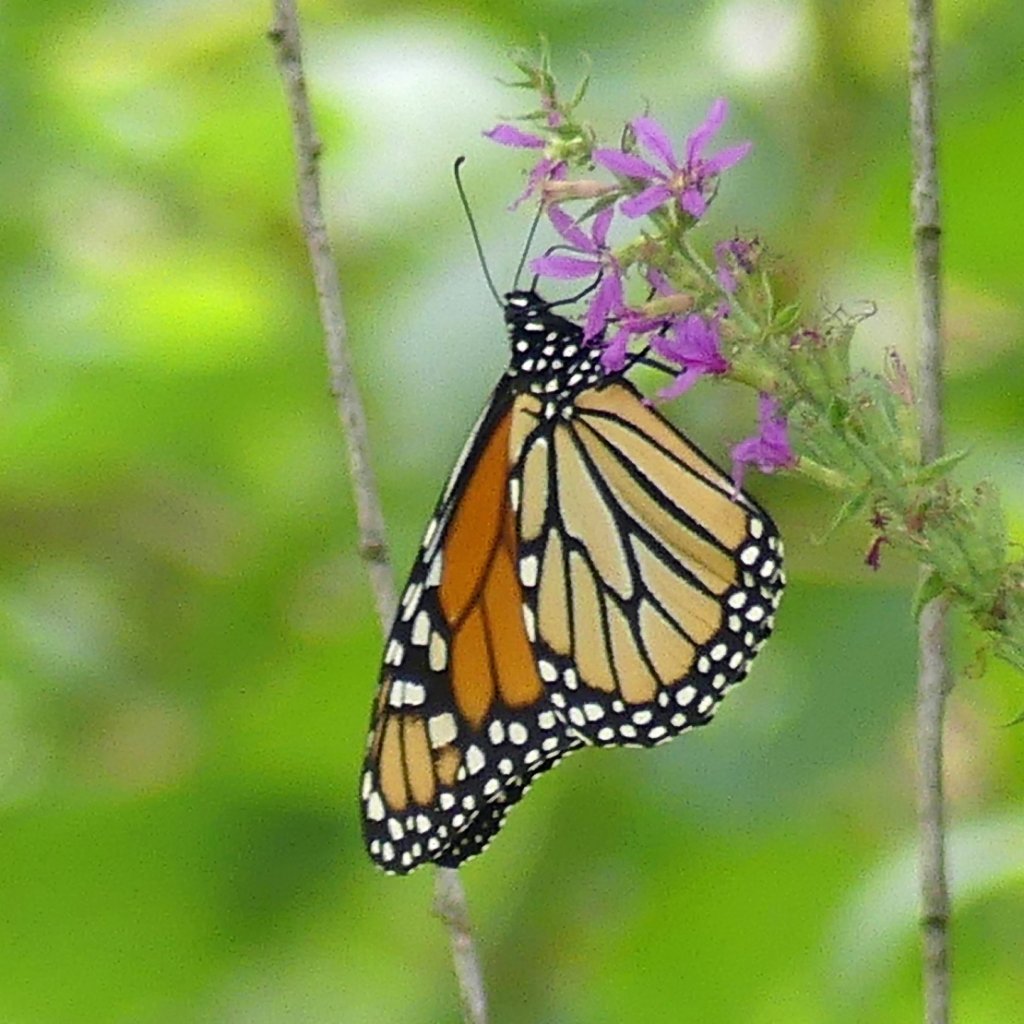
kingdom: Animalia
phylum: Arthropoda
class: Insecta
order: Lepidoptera
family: Nymphalidae
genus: Danaus
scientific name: Danaus plexippus
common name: Monarch
